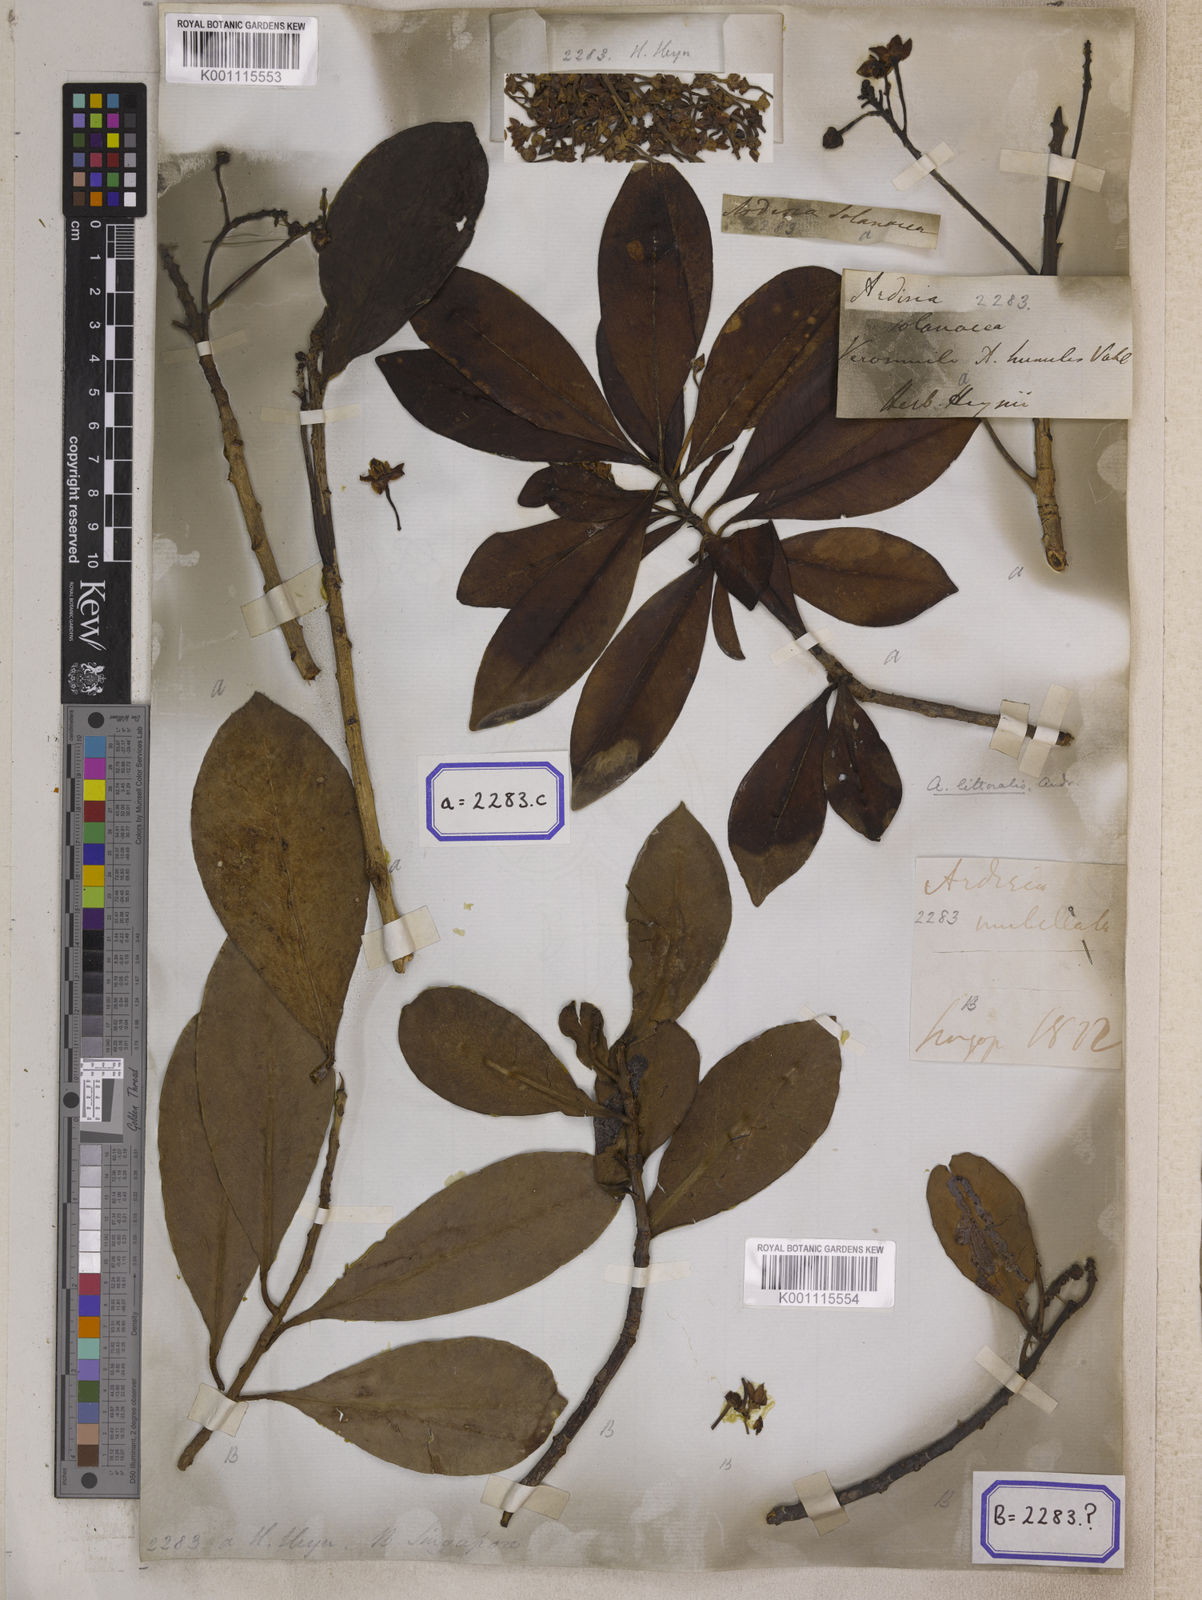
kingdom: Plantae
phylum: Tracheophyta
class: Magnoliopsida
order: Ericales
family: Primulaceae
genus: Ardisia
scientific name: Ardisia humilis
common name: Low shoebutton
